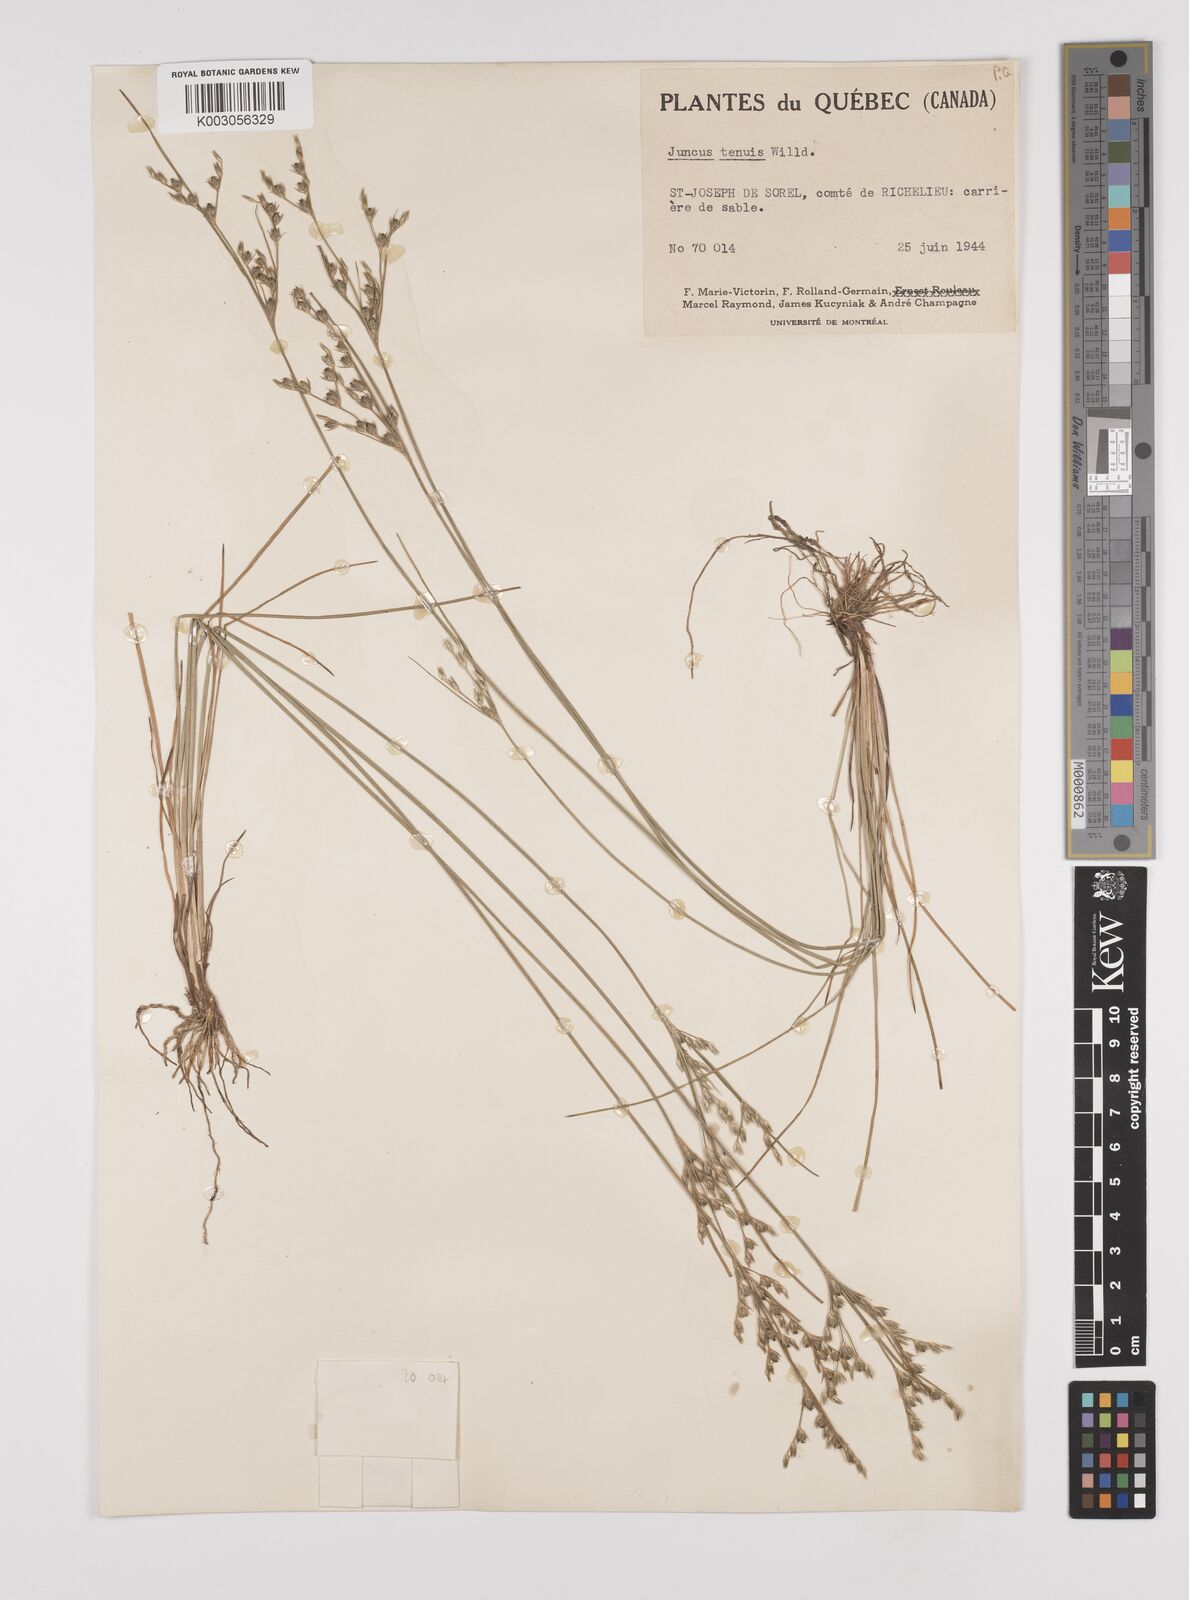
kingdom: Plantae
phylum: Tracheophyta
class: Liliopsida
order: Poales
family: Juncaceae
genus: Juncus
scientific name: Juncus tenuis
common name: Slender rush
